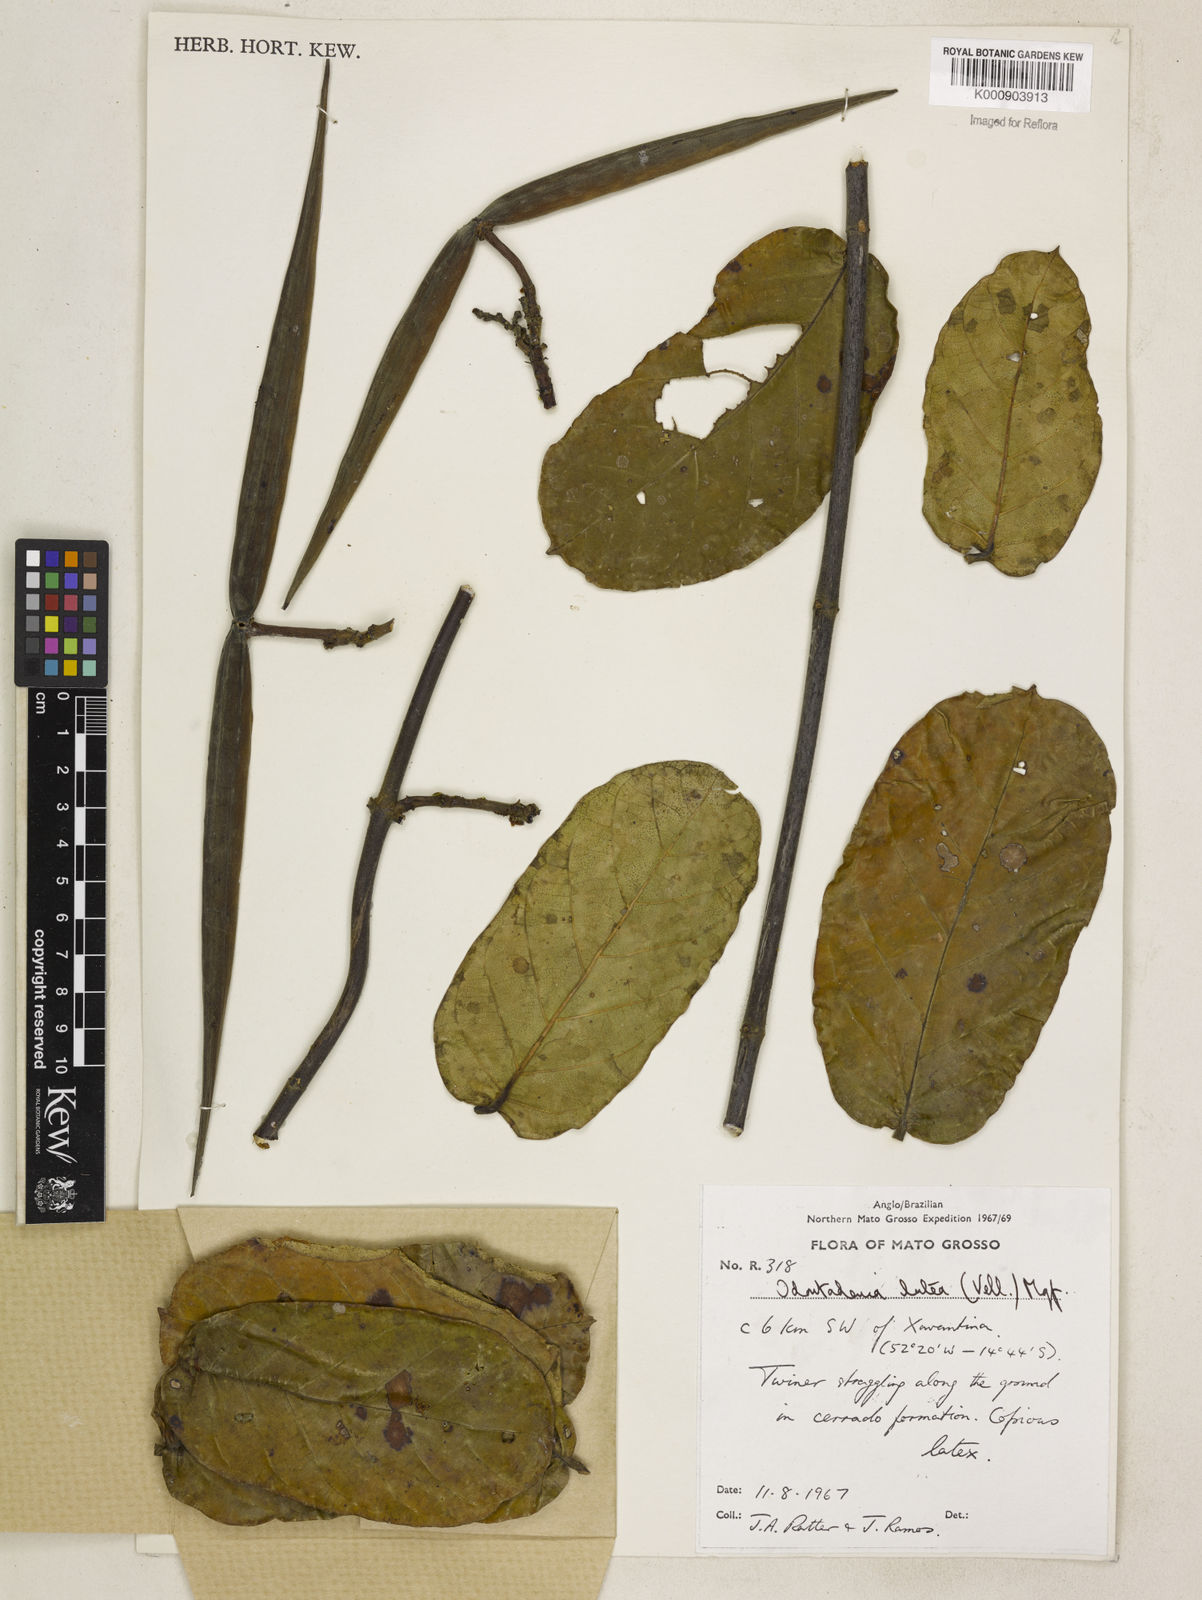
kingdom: Plantae
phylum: Tracheophyta
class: Magnoliopsida
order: Gentianales
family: Apocynaceae
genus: Odontadenia
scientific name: Odontadenia lutea
